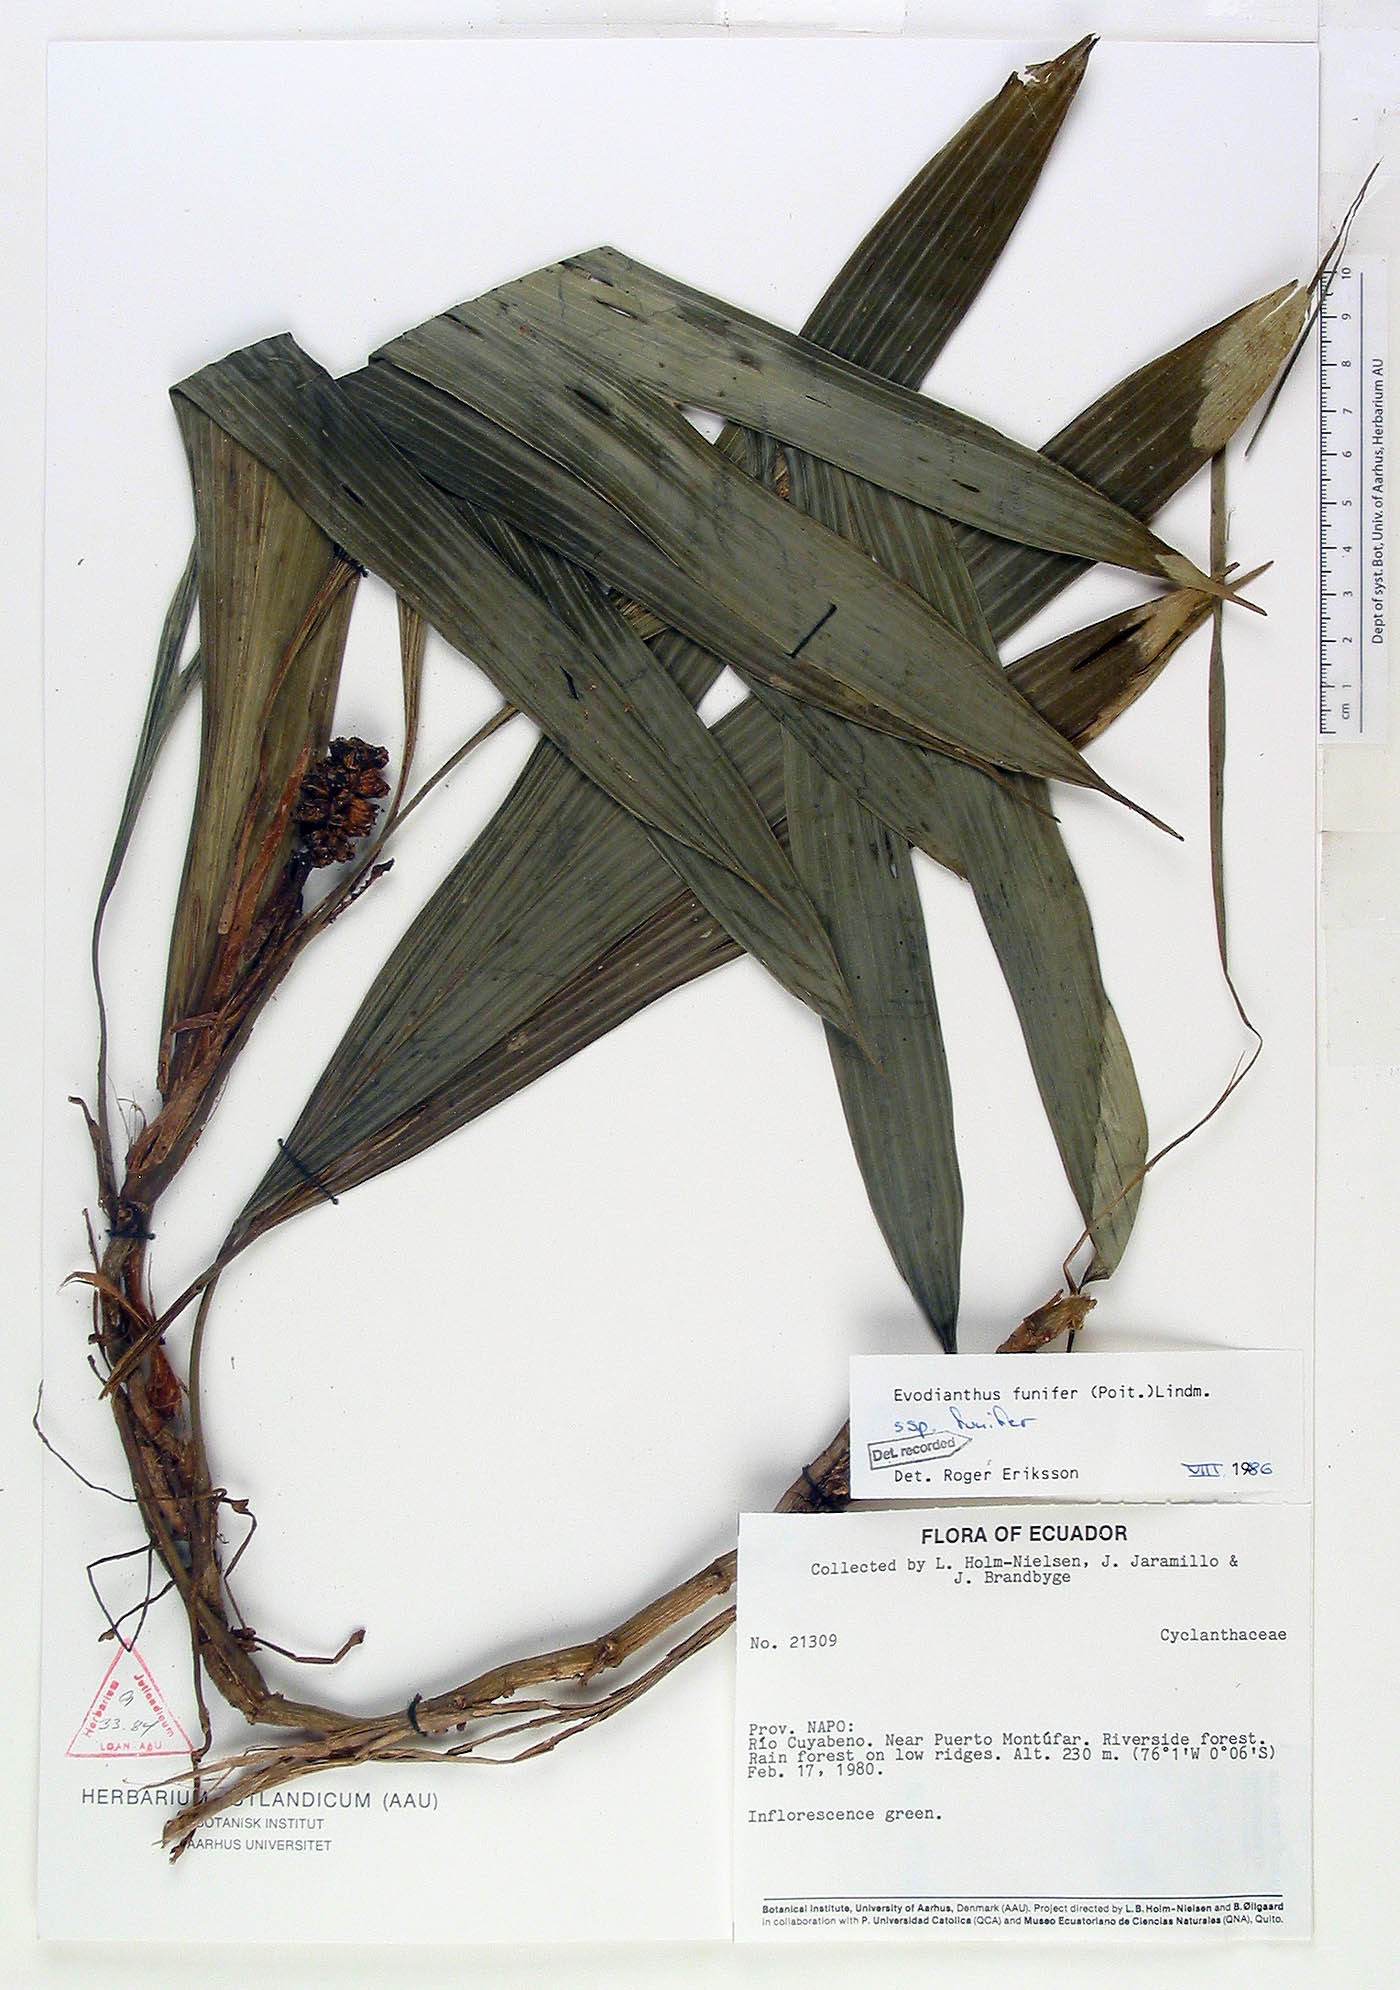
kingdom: Plantae
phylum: Tracheophyta
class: Liliopsida
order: Pandanales
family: Cyclanthaceae
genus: Evodianthus
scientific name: Evodianthus funifer
